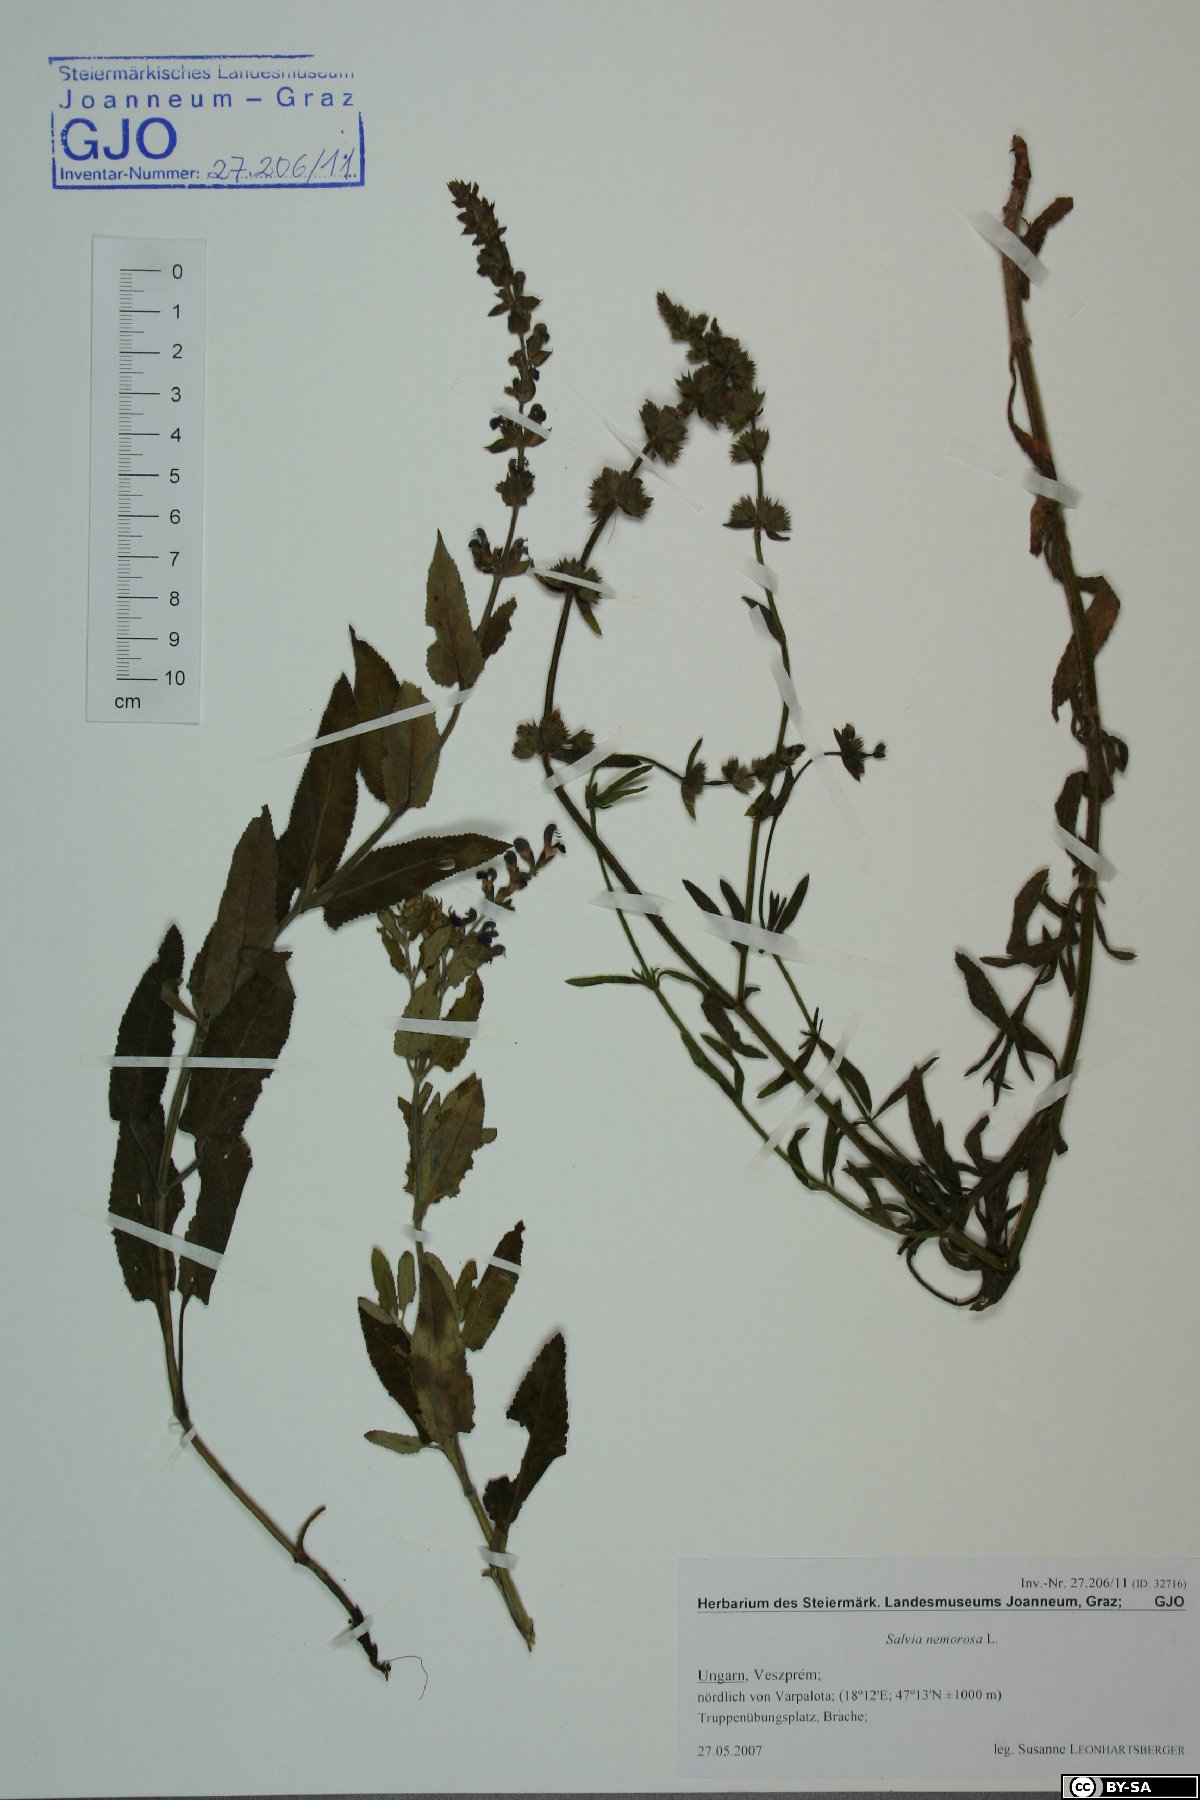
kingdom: Plantae
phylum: Tracheophyta
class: Magnoliopsida
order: Lamiales
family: Lamiaceae
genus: Salvia
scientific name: Salvia nemorosa
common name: Balkan clary
